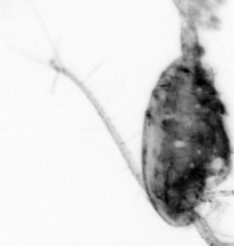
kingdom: Animalia
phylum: Arthropoda
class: Copepoda
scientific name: Copepoda
